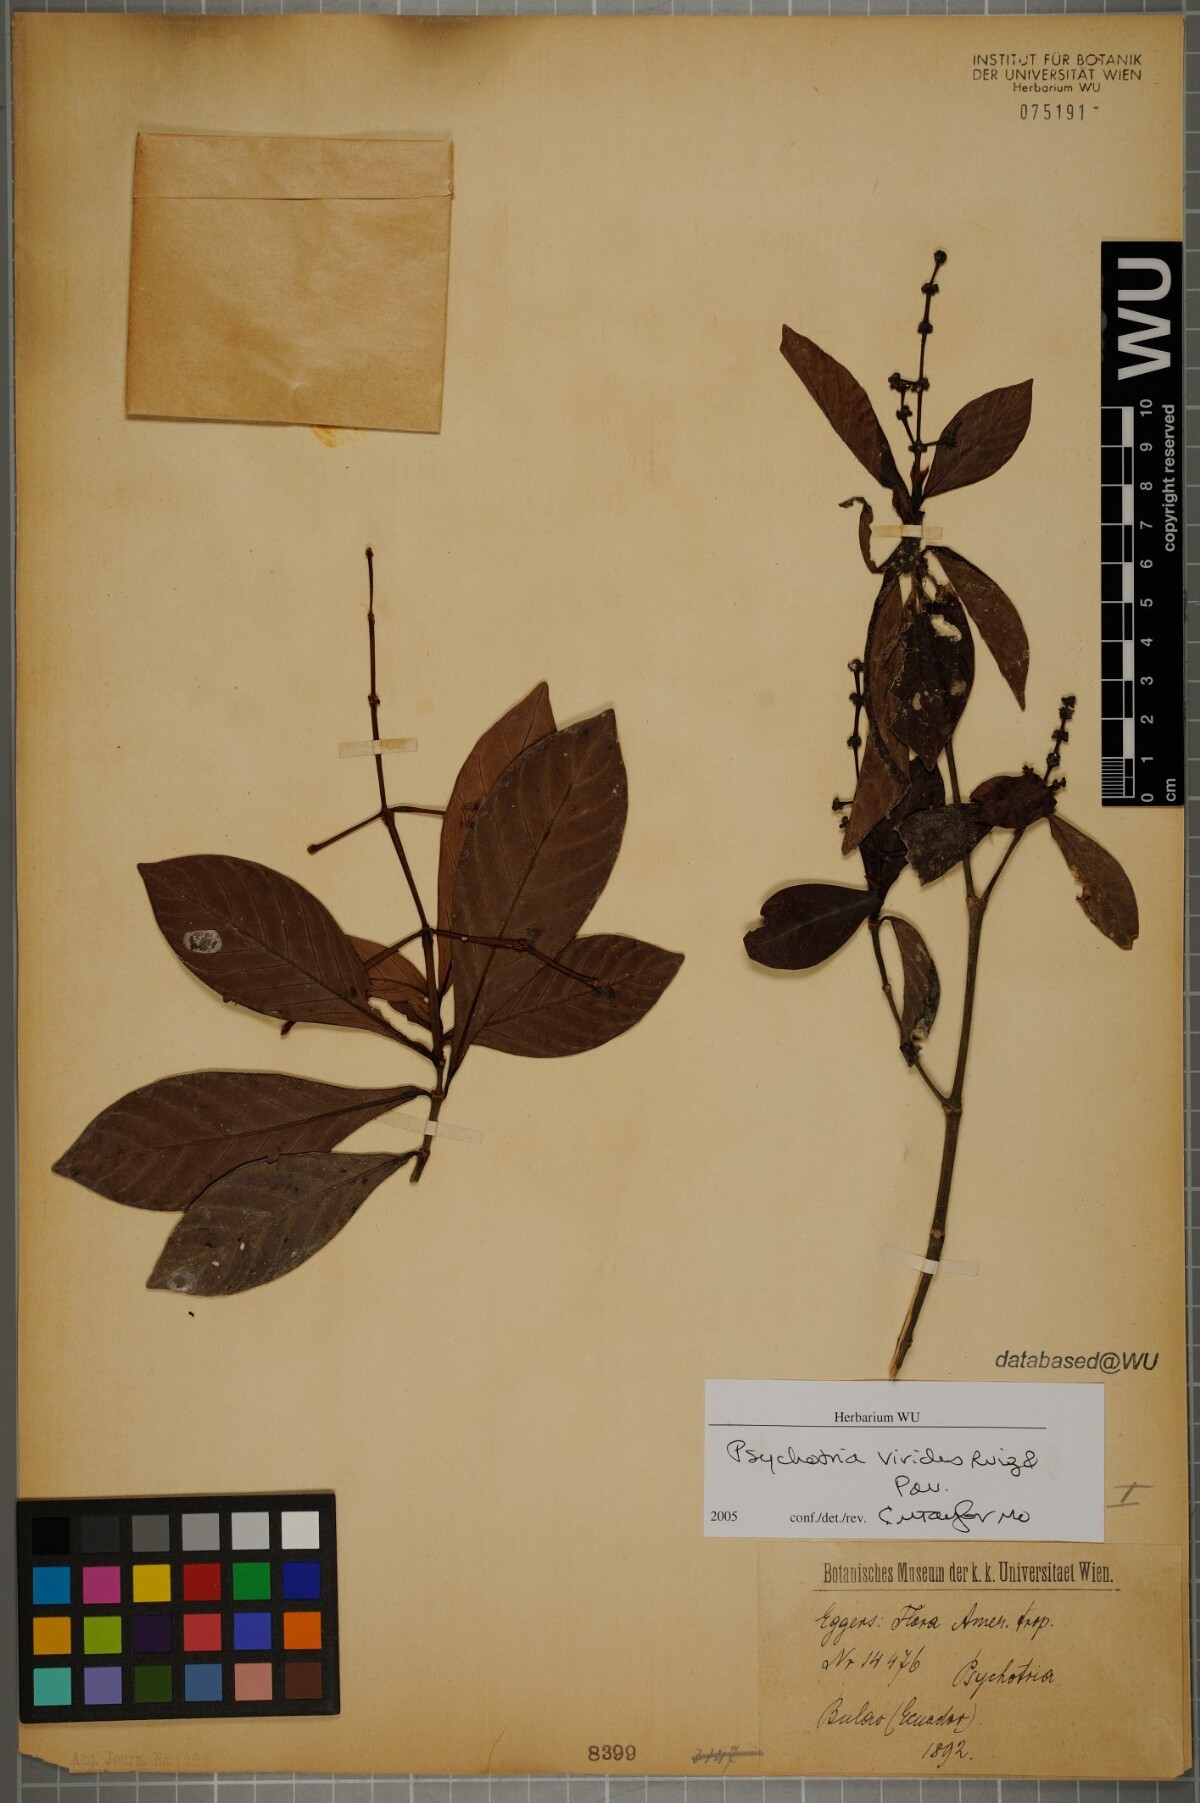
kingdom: Plantae
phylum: Tracheophyta
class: Magnoliopsida
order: Gentianales
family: Rubiaceae
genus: Psychotria
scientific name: Psychotria viridis
